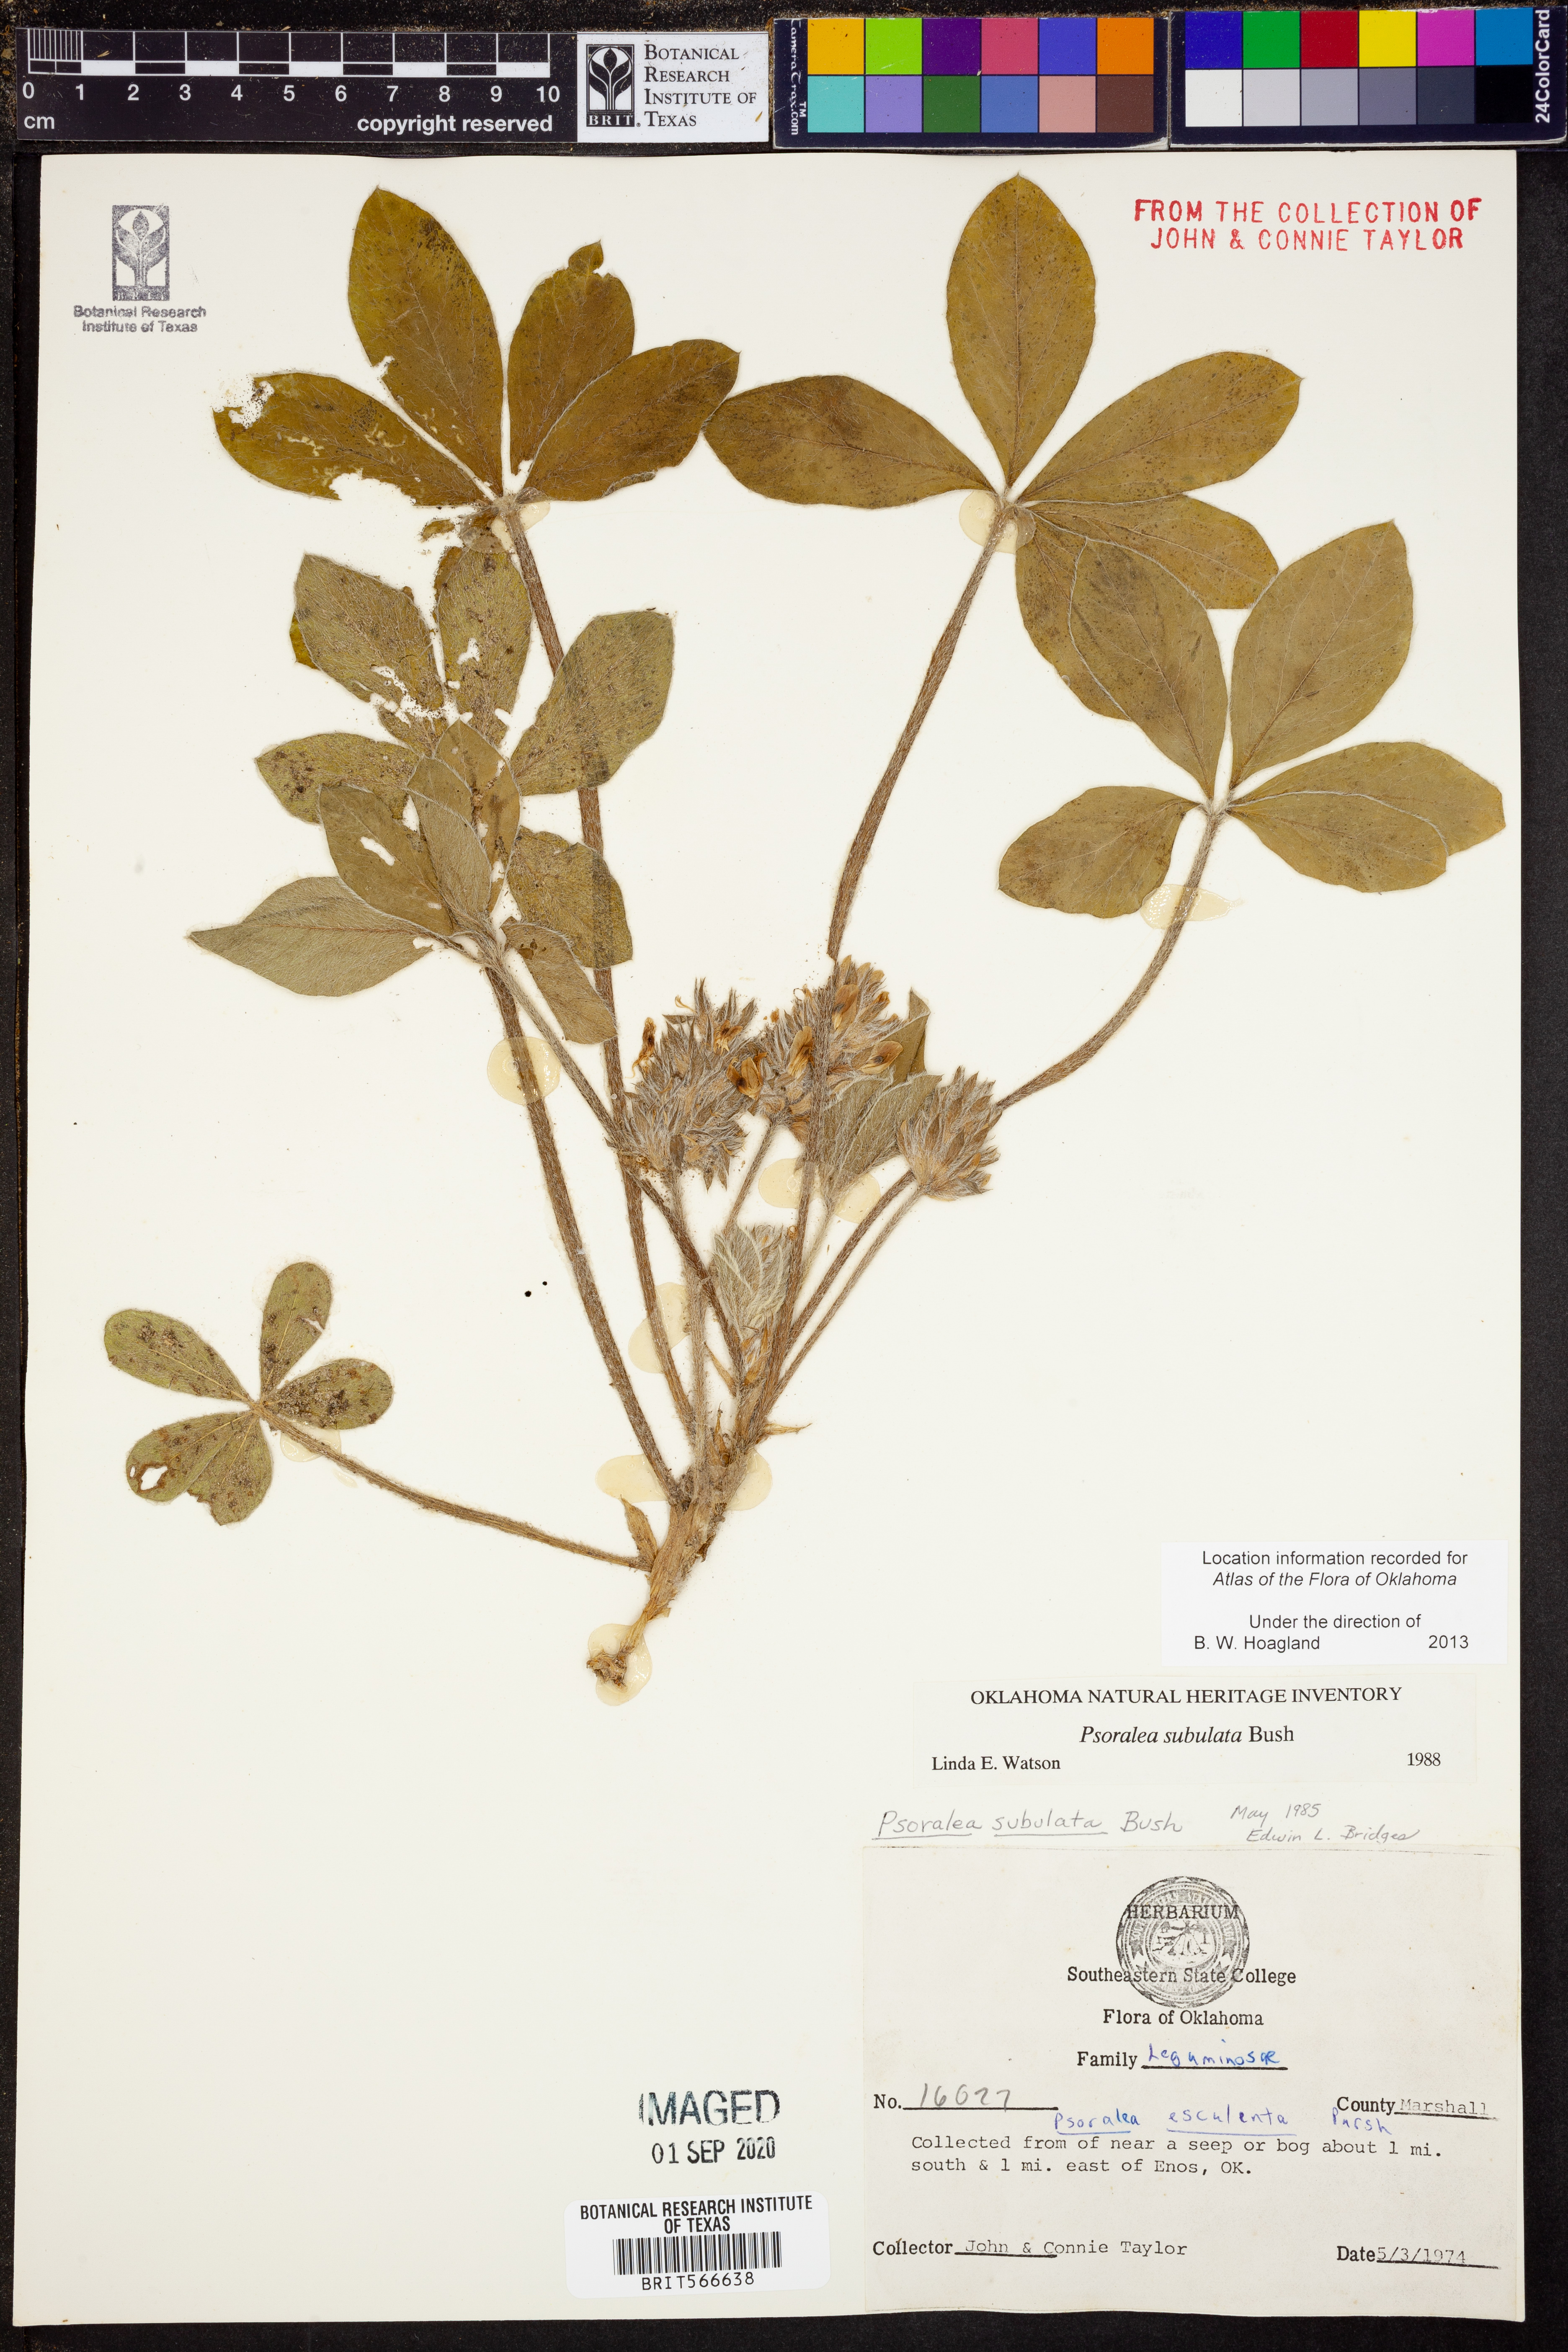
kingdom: Plantae
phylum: Tracheophyta
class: Magnoliopsida
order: Fabales
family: Fabaceae
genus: Pediomelum
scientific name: Pediomelum hypogaeum
